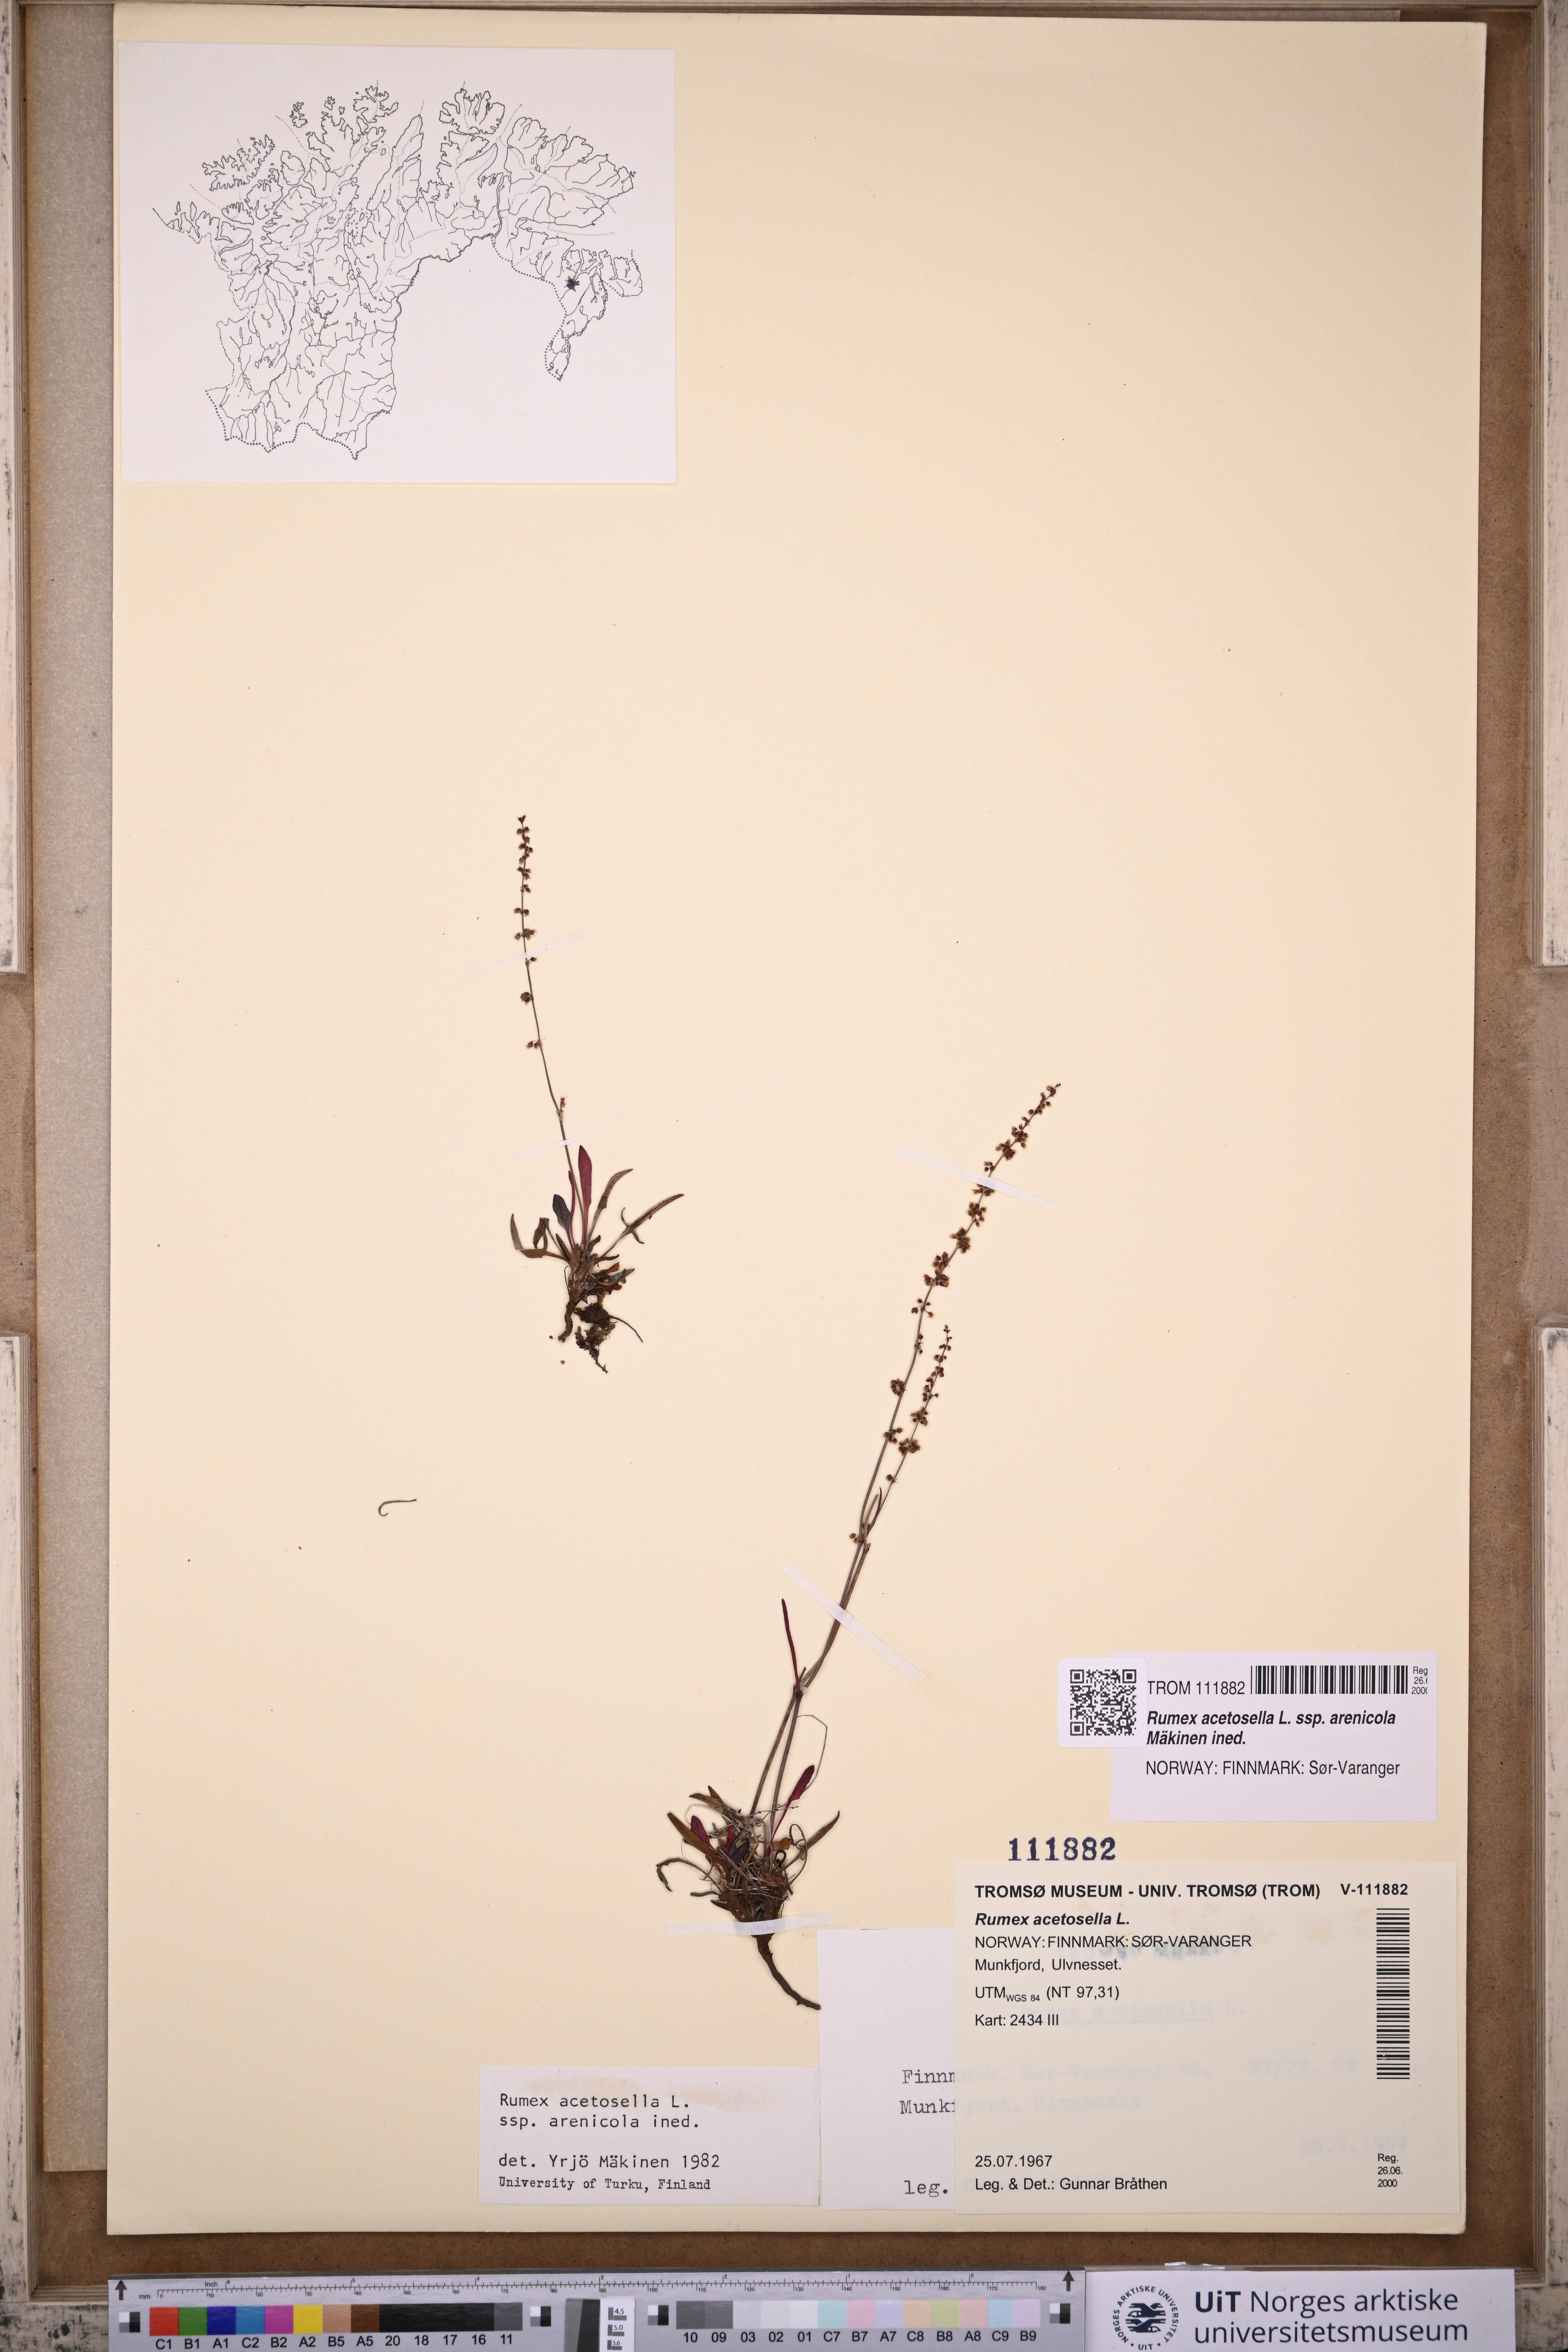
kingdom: Plantae
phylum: Tracheophyta
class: Magnoliopsida
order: Caryophyllales
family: Polygonaceae
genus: Rumex
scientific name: Rumex acetosella
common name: Common sheep sorrel
